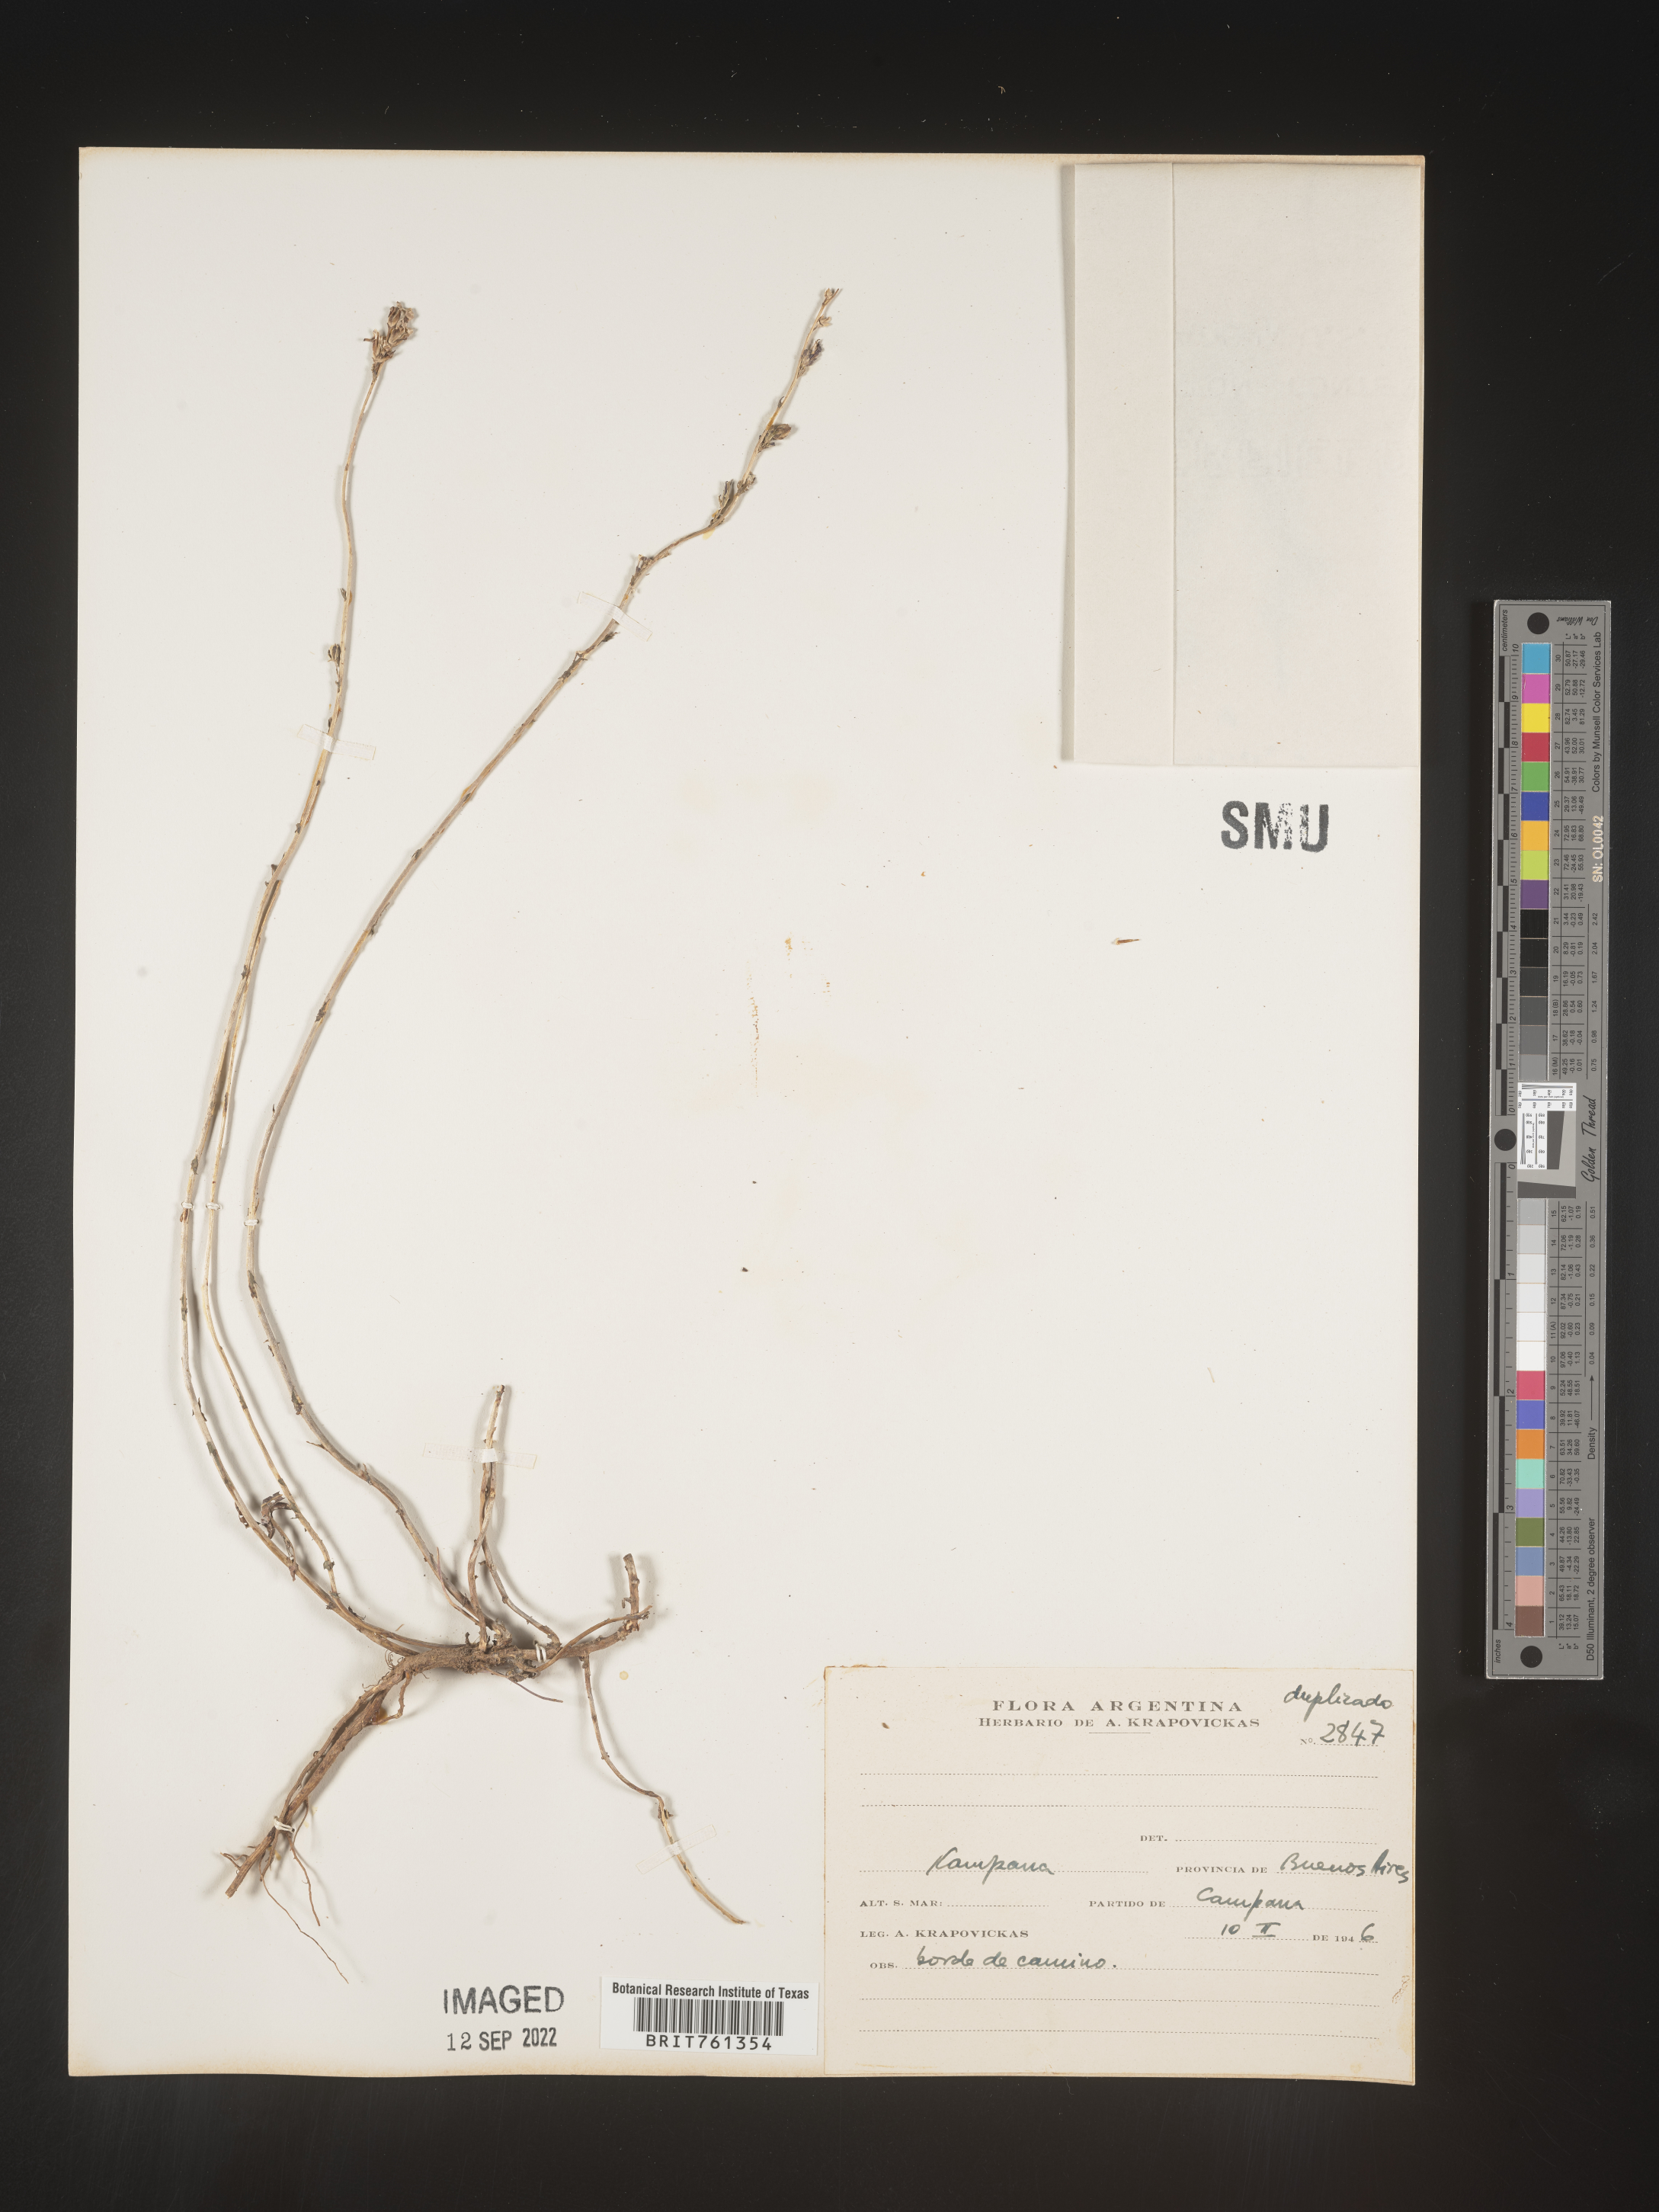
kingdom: Plantae
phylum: Tracheophyta
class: Magnoliopsida
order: Asterales
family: Asteraceae
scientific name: Asteraceae
